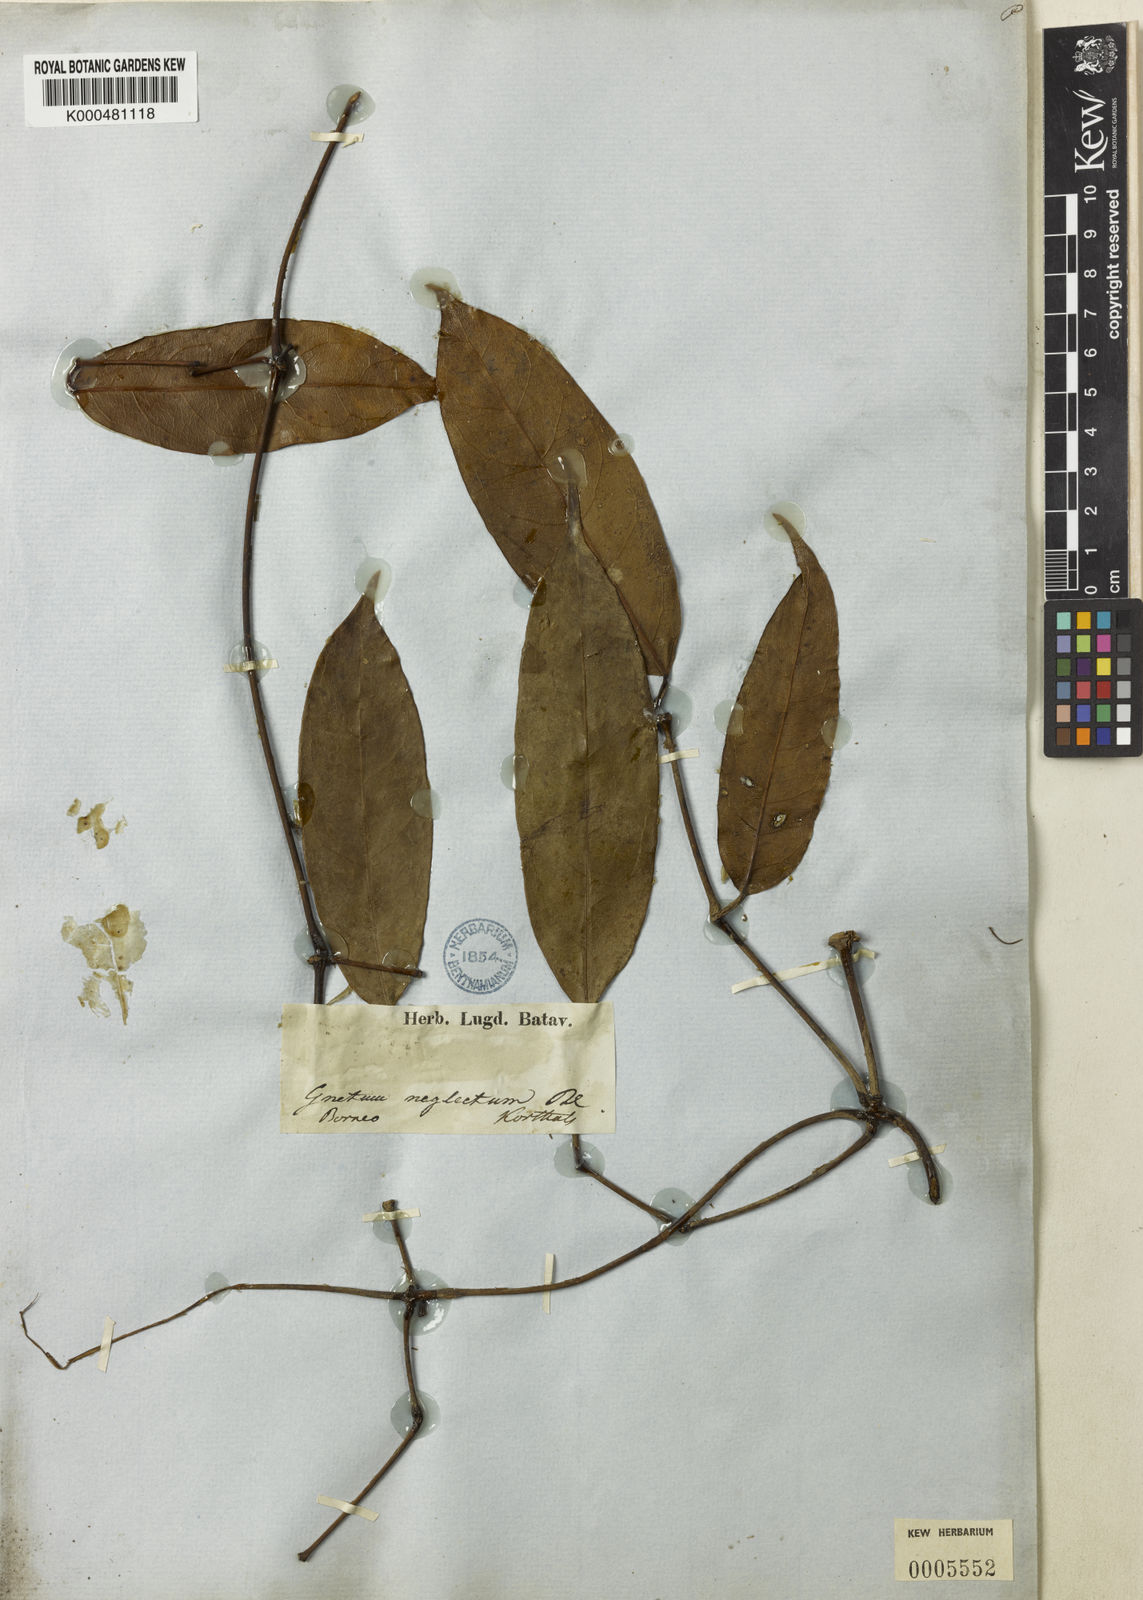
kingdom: Plantae
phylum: Tracheophyta
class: Gnetopsida
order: Gnetales
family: Gnetaceae
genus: Gnetum
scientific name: Gnetum neglectum
